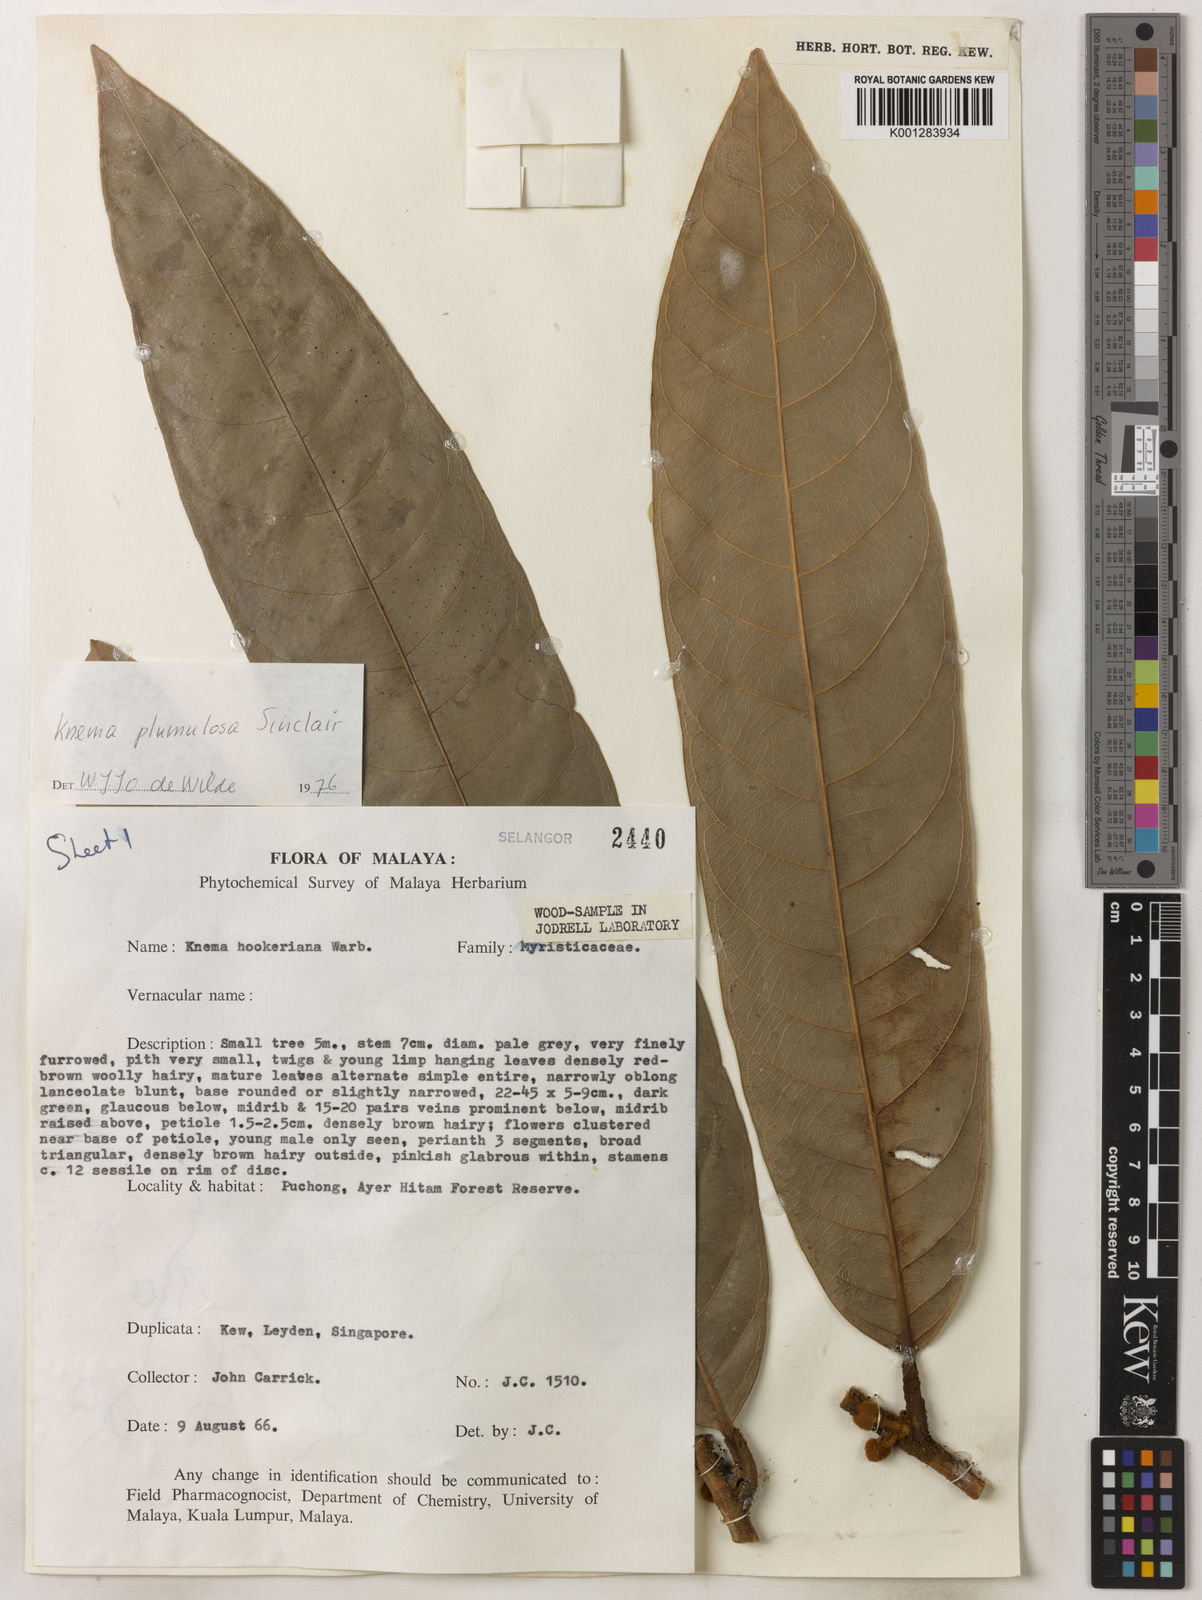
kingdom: Plantae
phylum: Tracheophyta
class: Magnoliopsida
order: Magnoliales
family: Myristicaceae
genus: Knema
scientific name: Knema plumulosa
